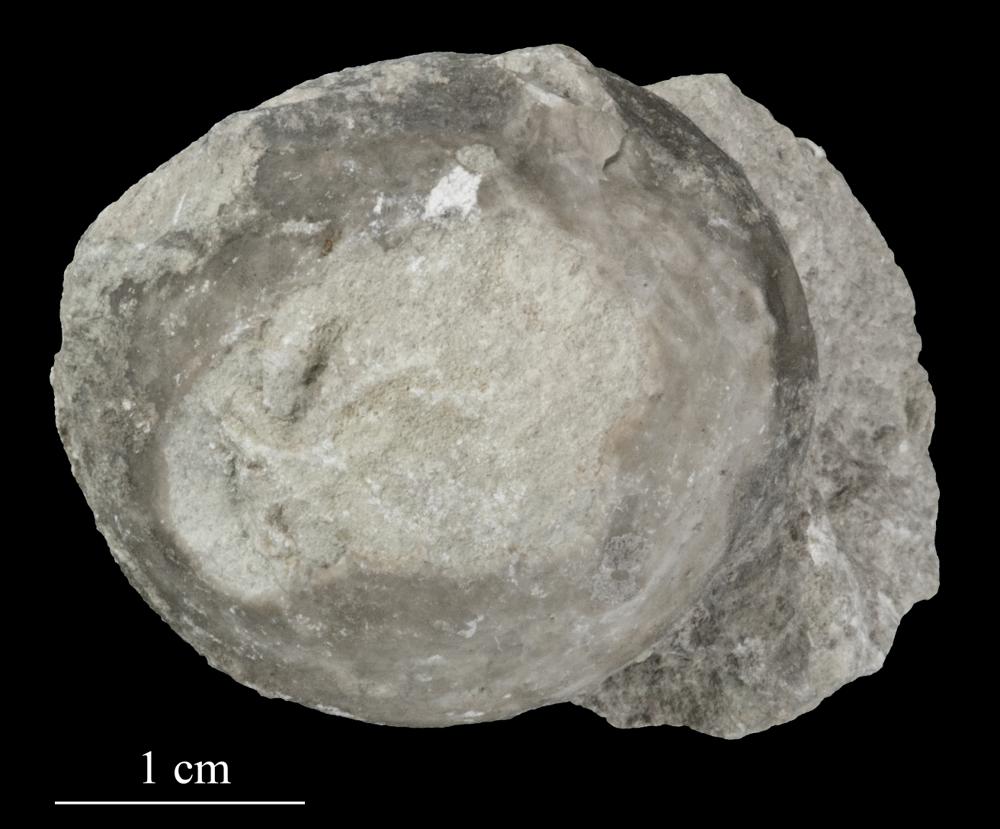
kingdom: Animalia
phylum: Echinodermata
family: Echinosphaeritidae
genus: Echinosphaerites
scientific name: Echinosphaerites Echinus aurantium
